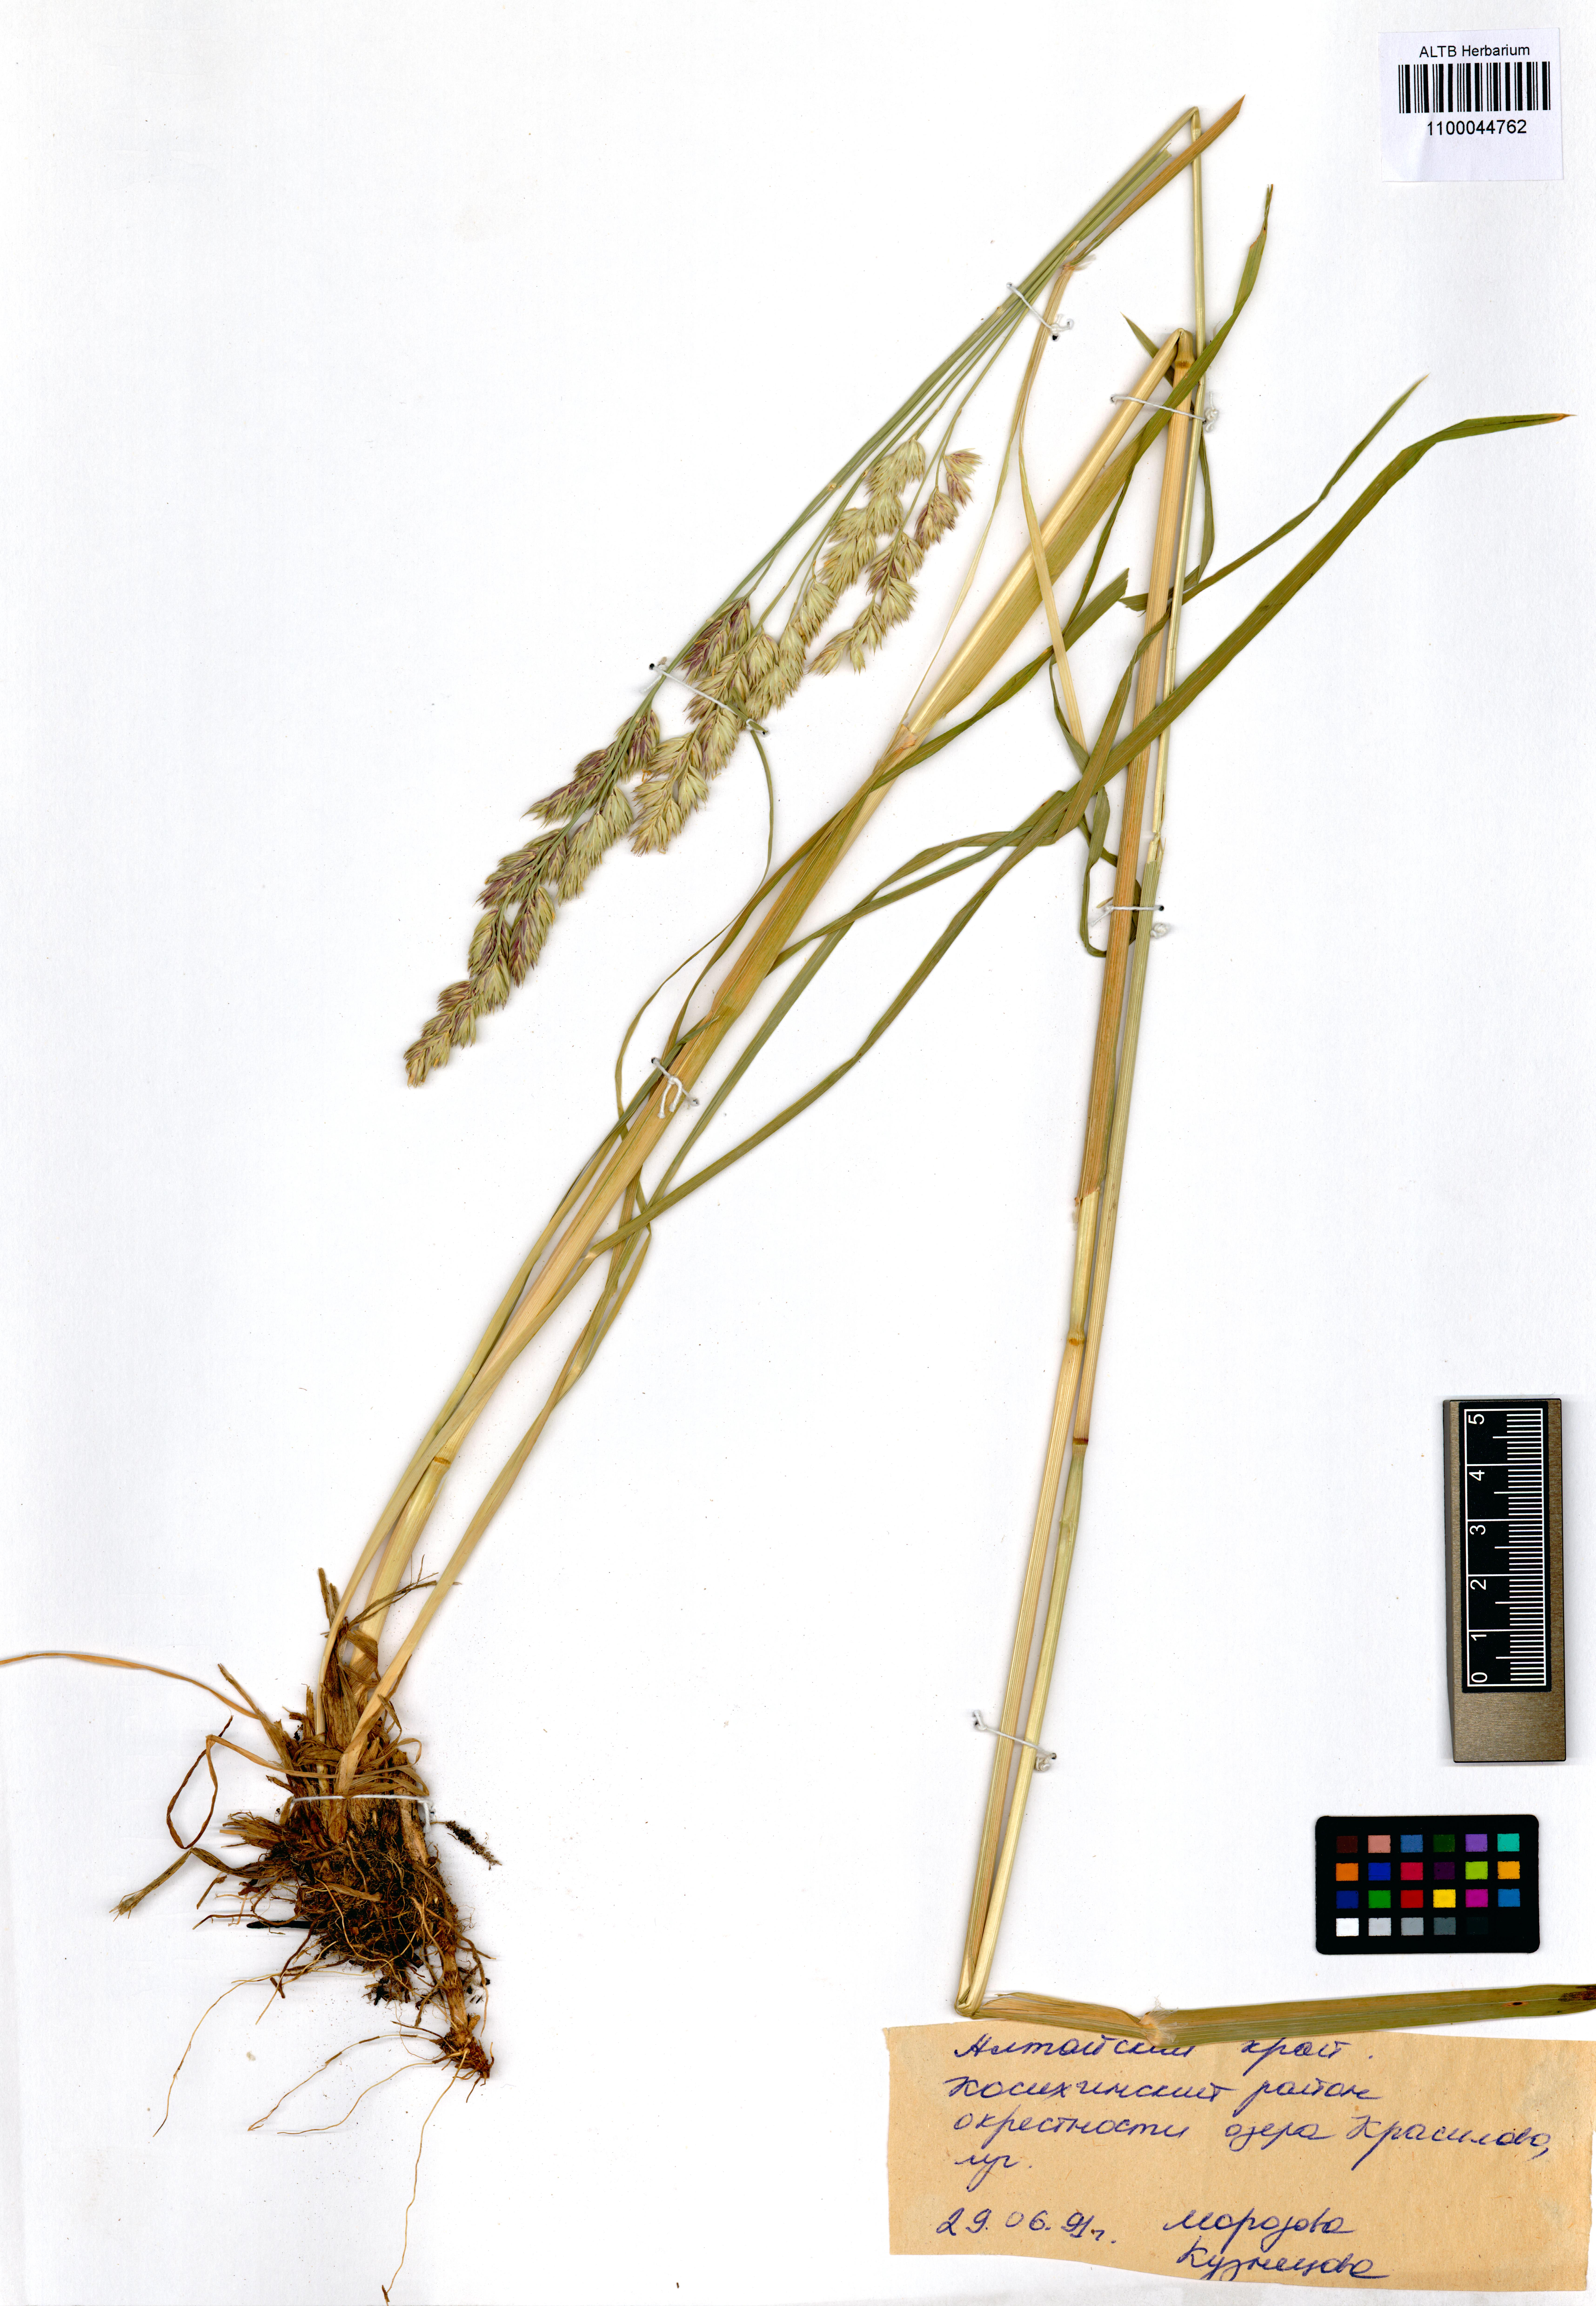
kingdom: Plantae
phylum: Tracheophyta
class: Liliopsida
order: Poales
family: Poaceae
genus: Dactylis
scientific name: Dactylis glomerata
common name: Orchardgrass
